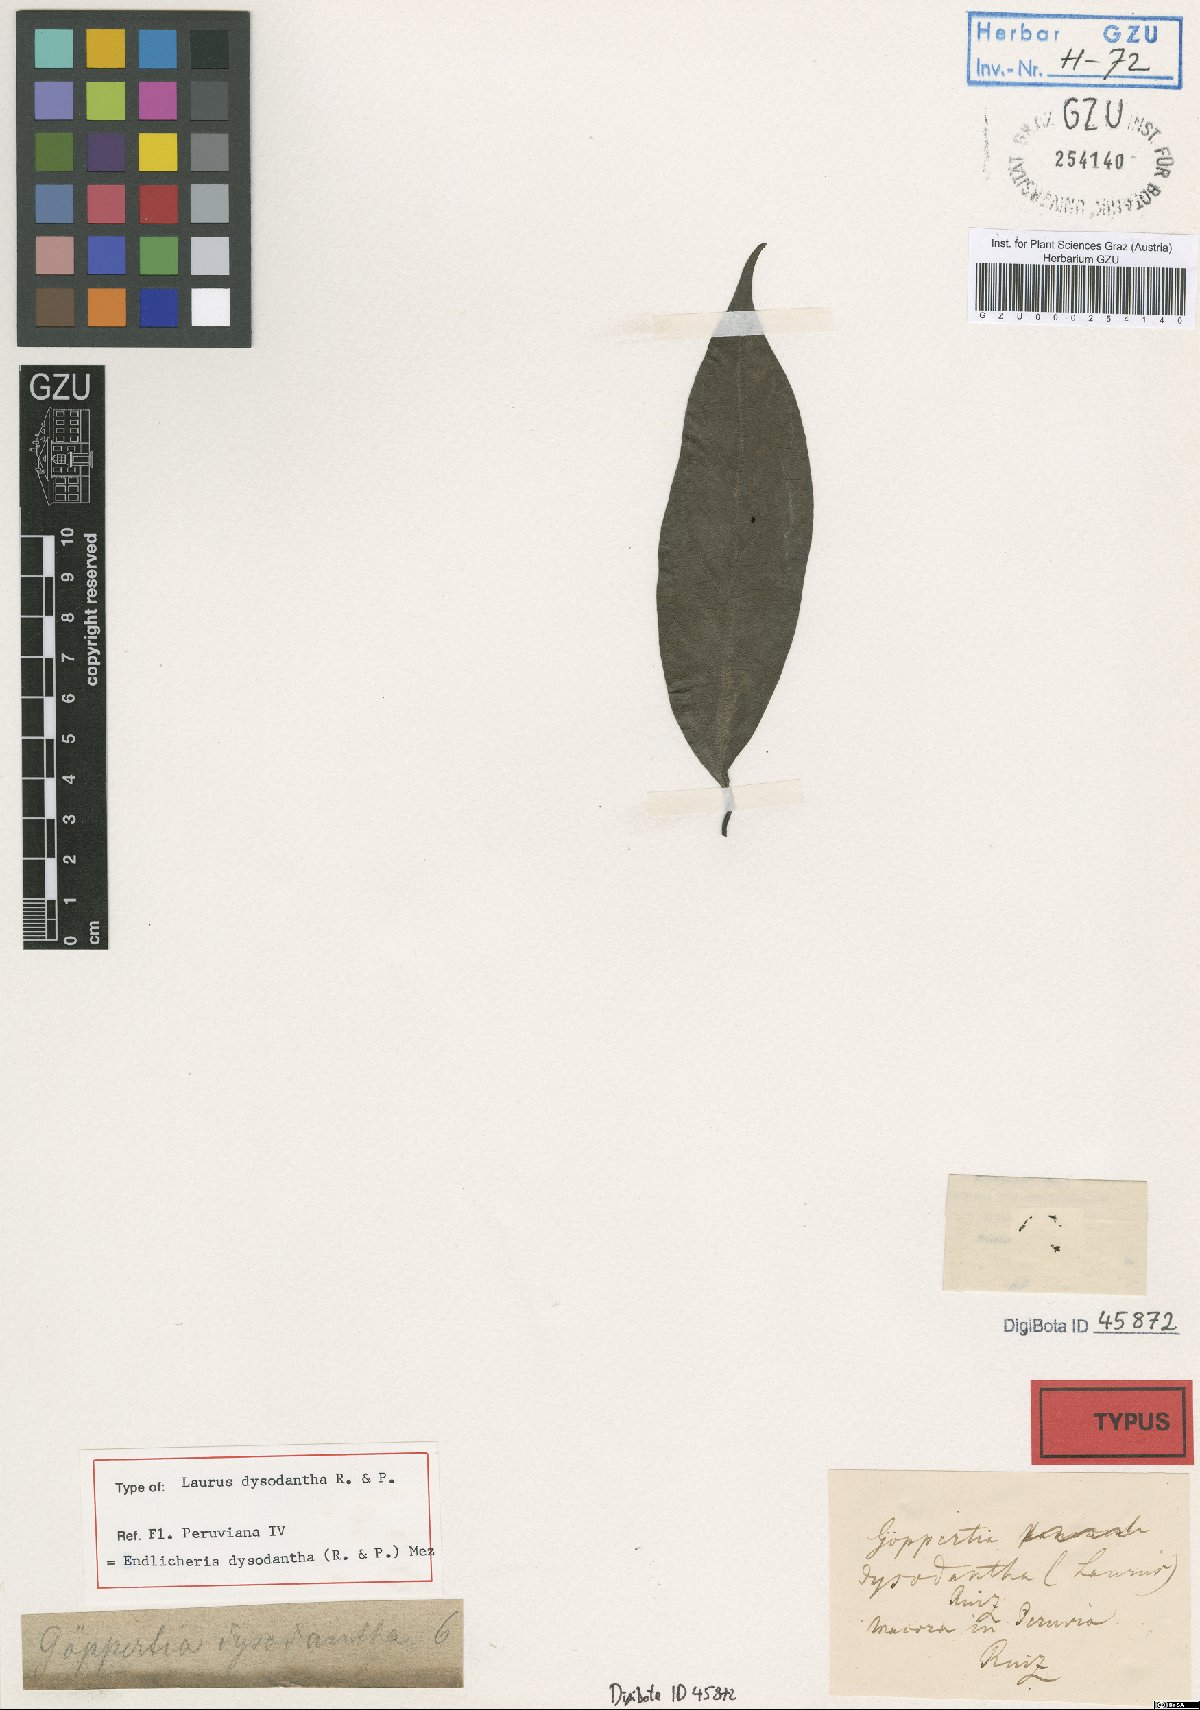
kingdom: Plantae
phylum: Tracheophyta
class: Magnoliopsida
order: Laurales
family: Lauraceae
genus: Endlicheria
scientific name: Endlicheria dysodantha
